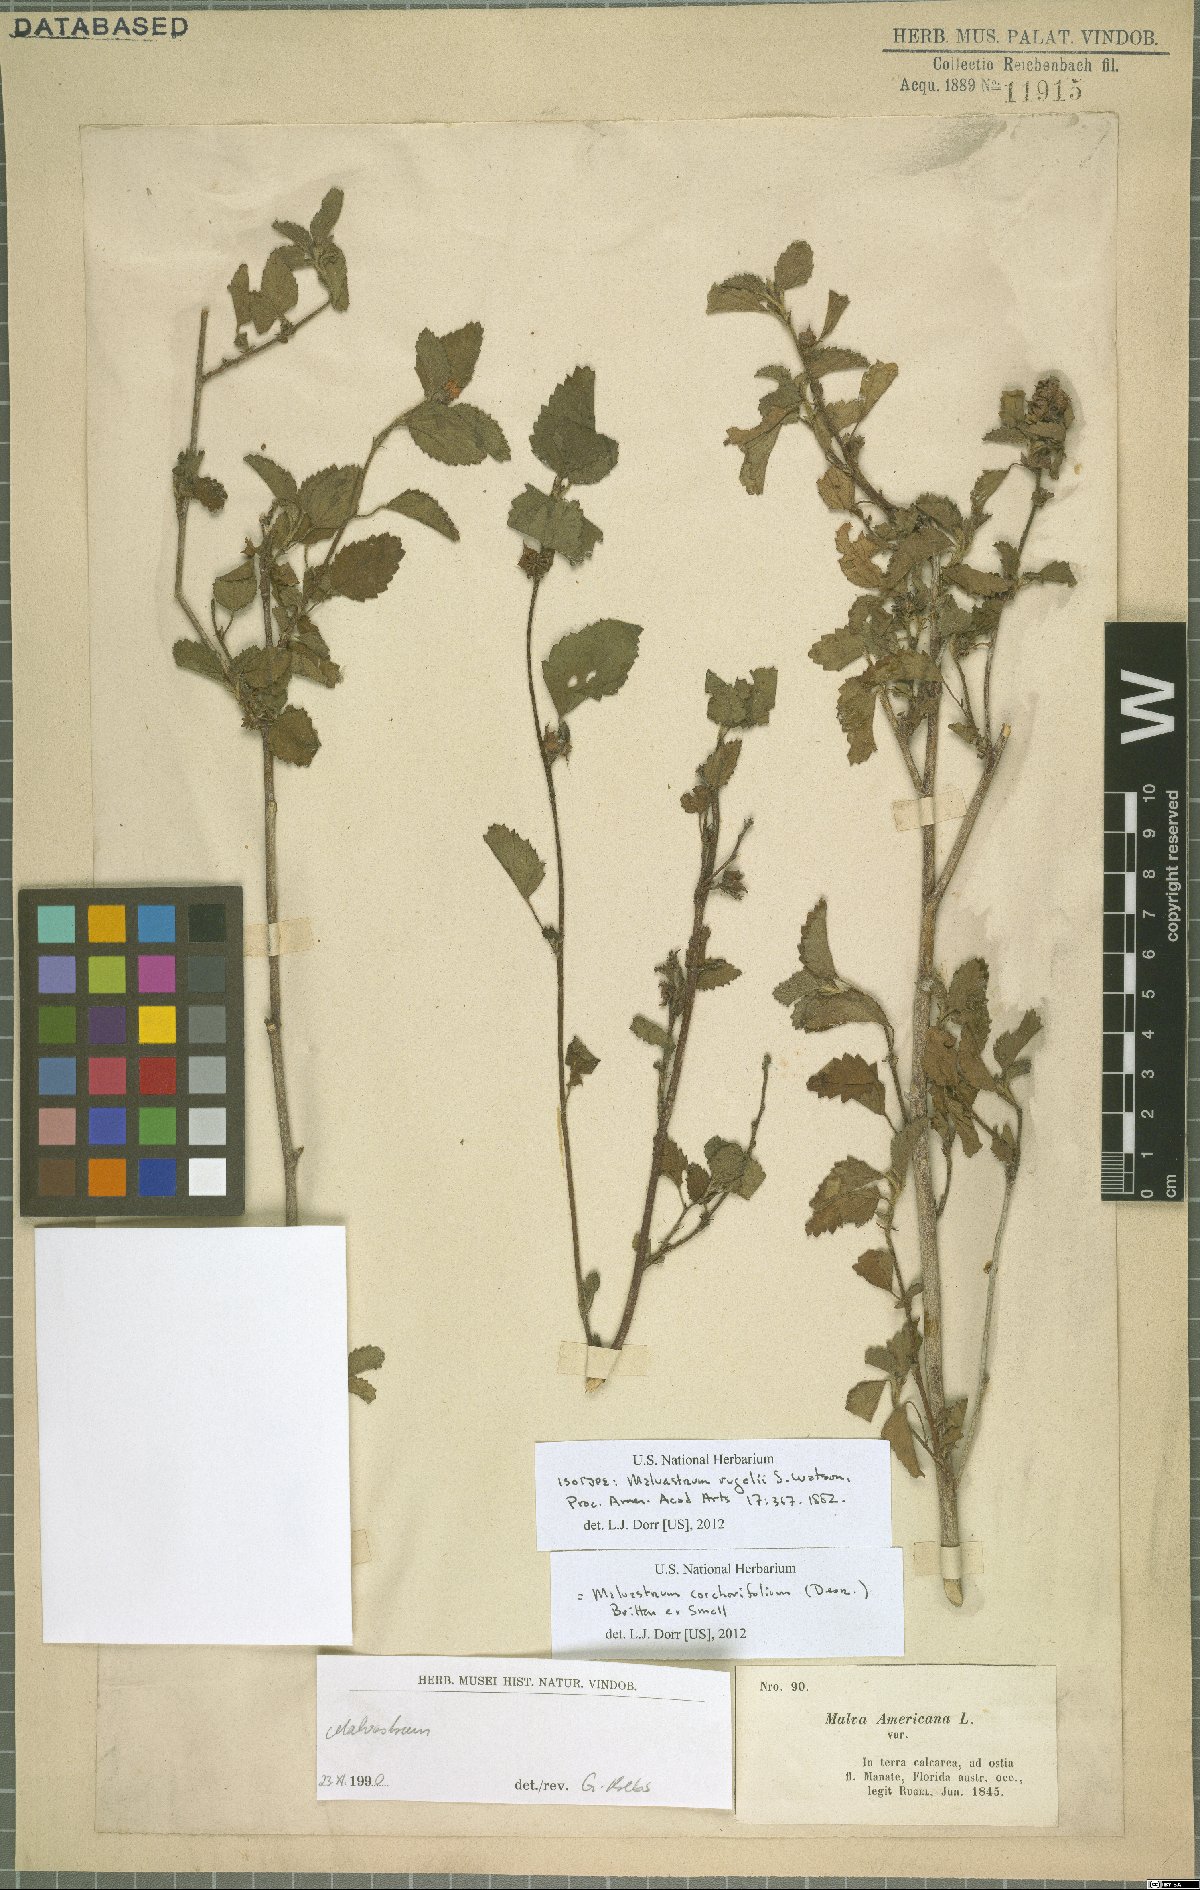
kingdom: Plantae
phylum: Tracheophyta
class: Magnoliopsida
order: Malvales
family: Malvaceae
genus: Malvastrum
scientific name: Malvastrum corchorifolium
